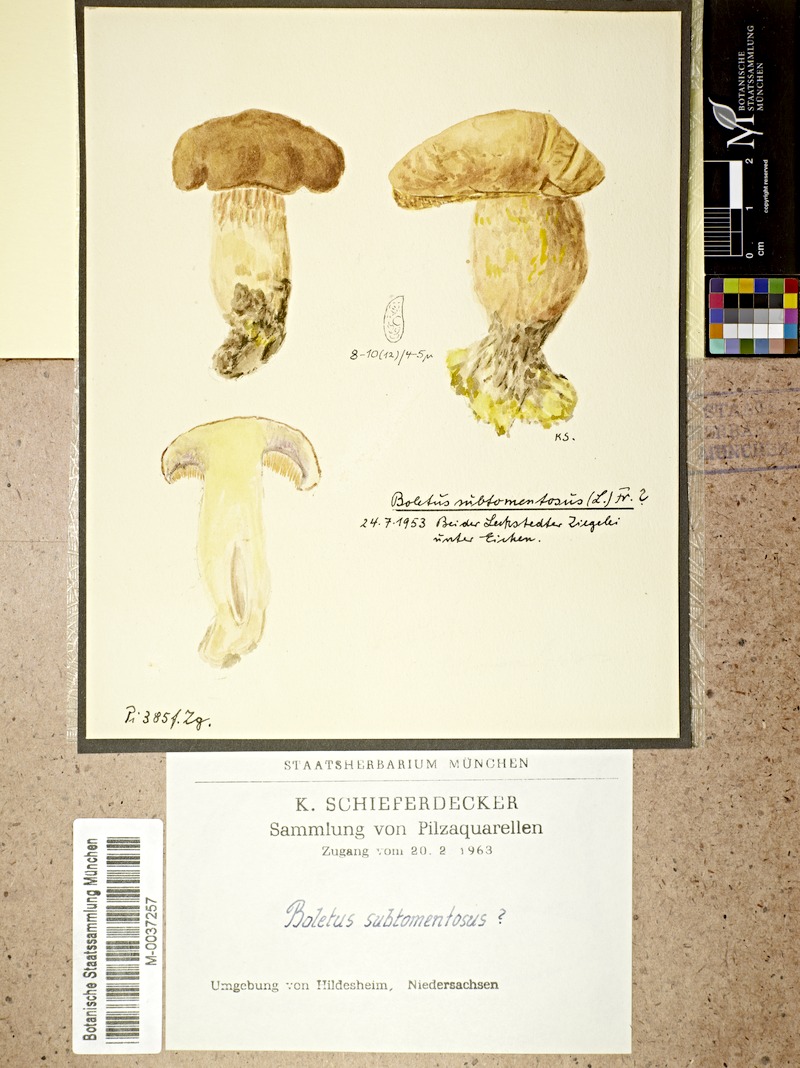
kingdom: Fungi
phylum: Basidiomycota
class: Agaricomycetes
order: Boletales
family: Boletaceae
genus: Xerocomus
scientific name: Xerocomus subtomentosus
